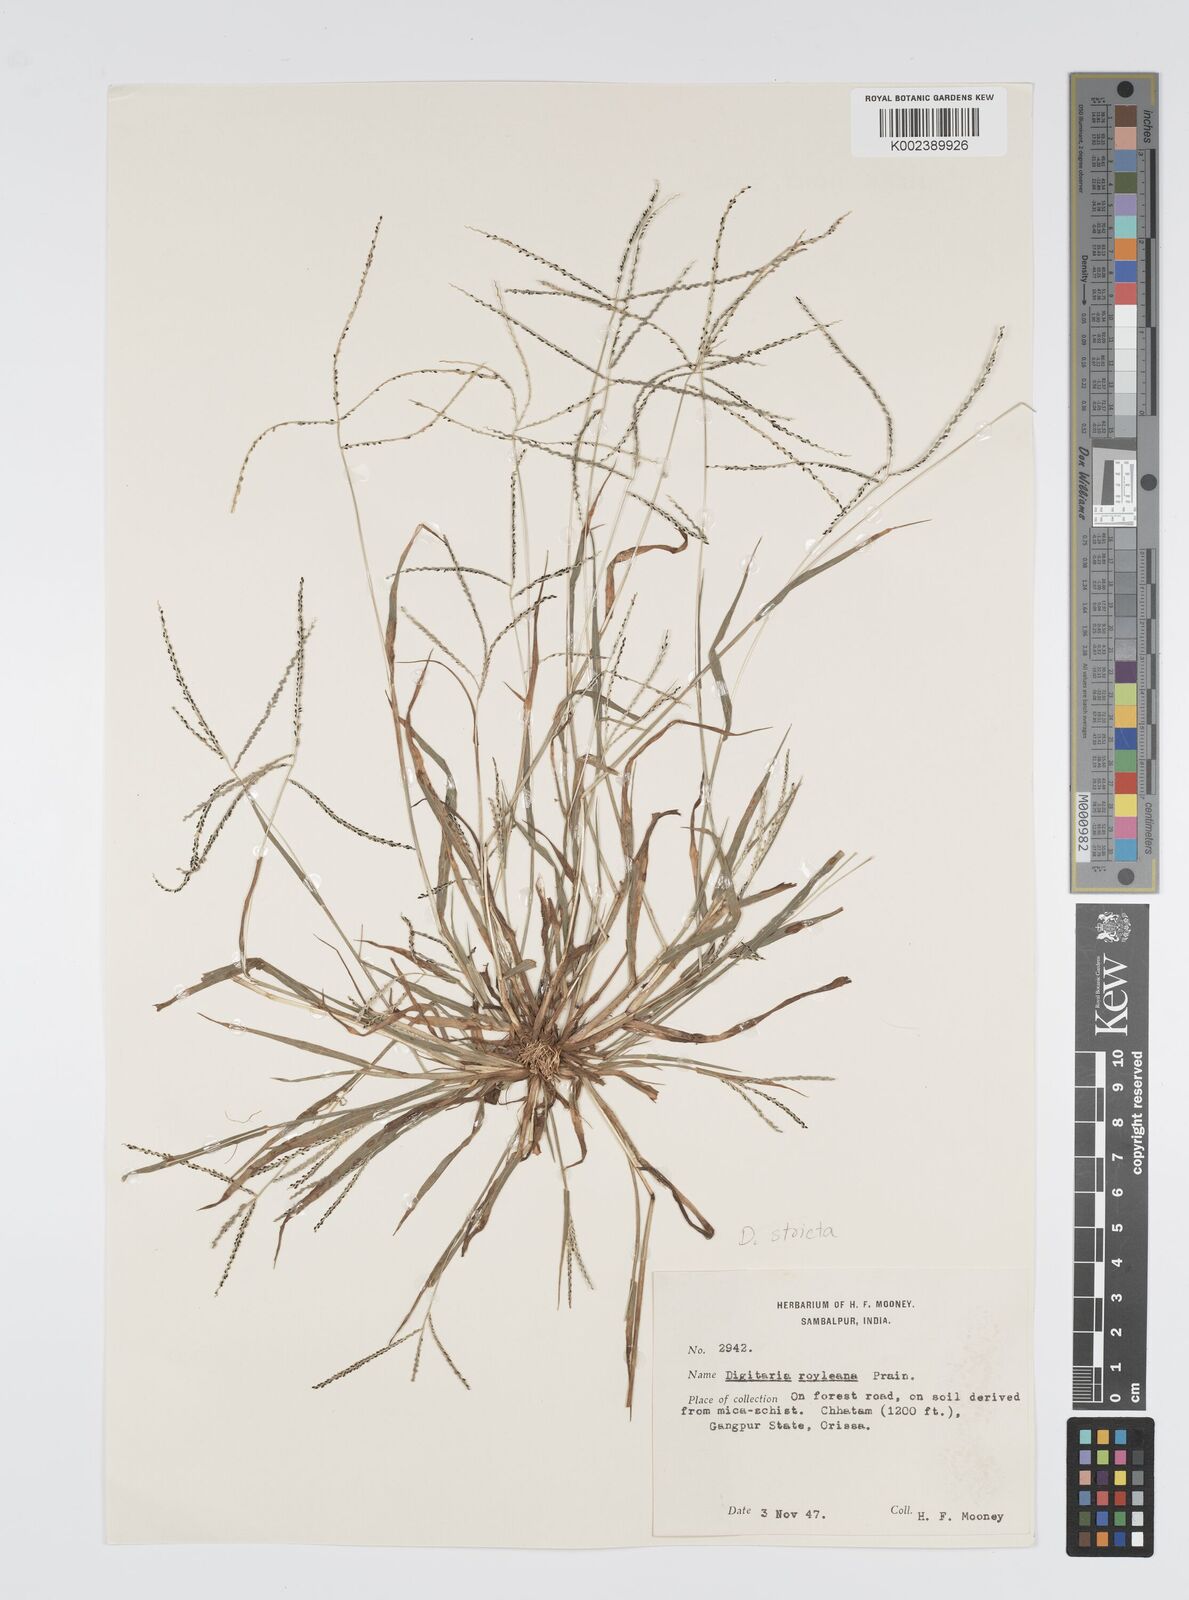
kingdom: Plantae
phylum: Tracheophyta
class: Liliopsida
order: Poales
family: Poaceae
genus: Digitaria
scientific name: Digitaria stricta
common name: Crabgrass
